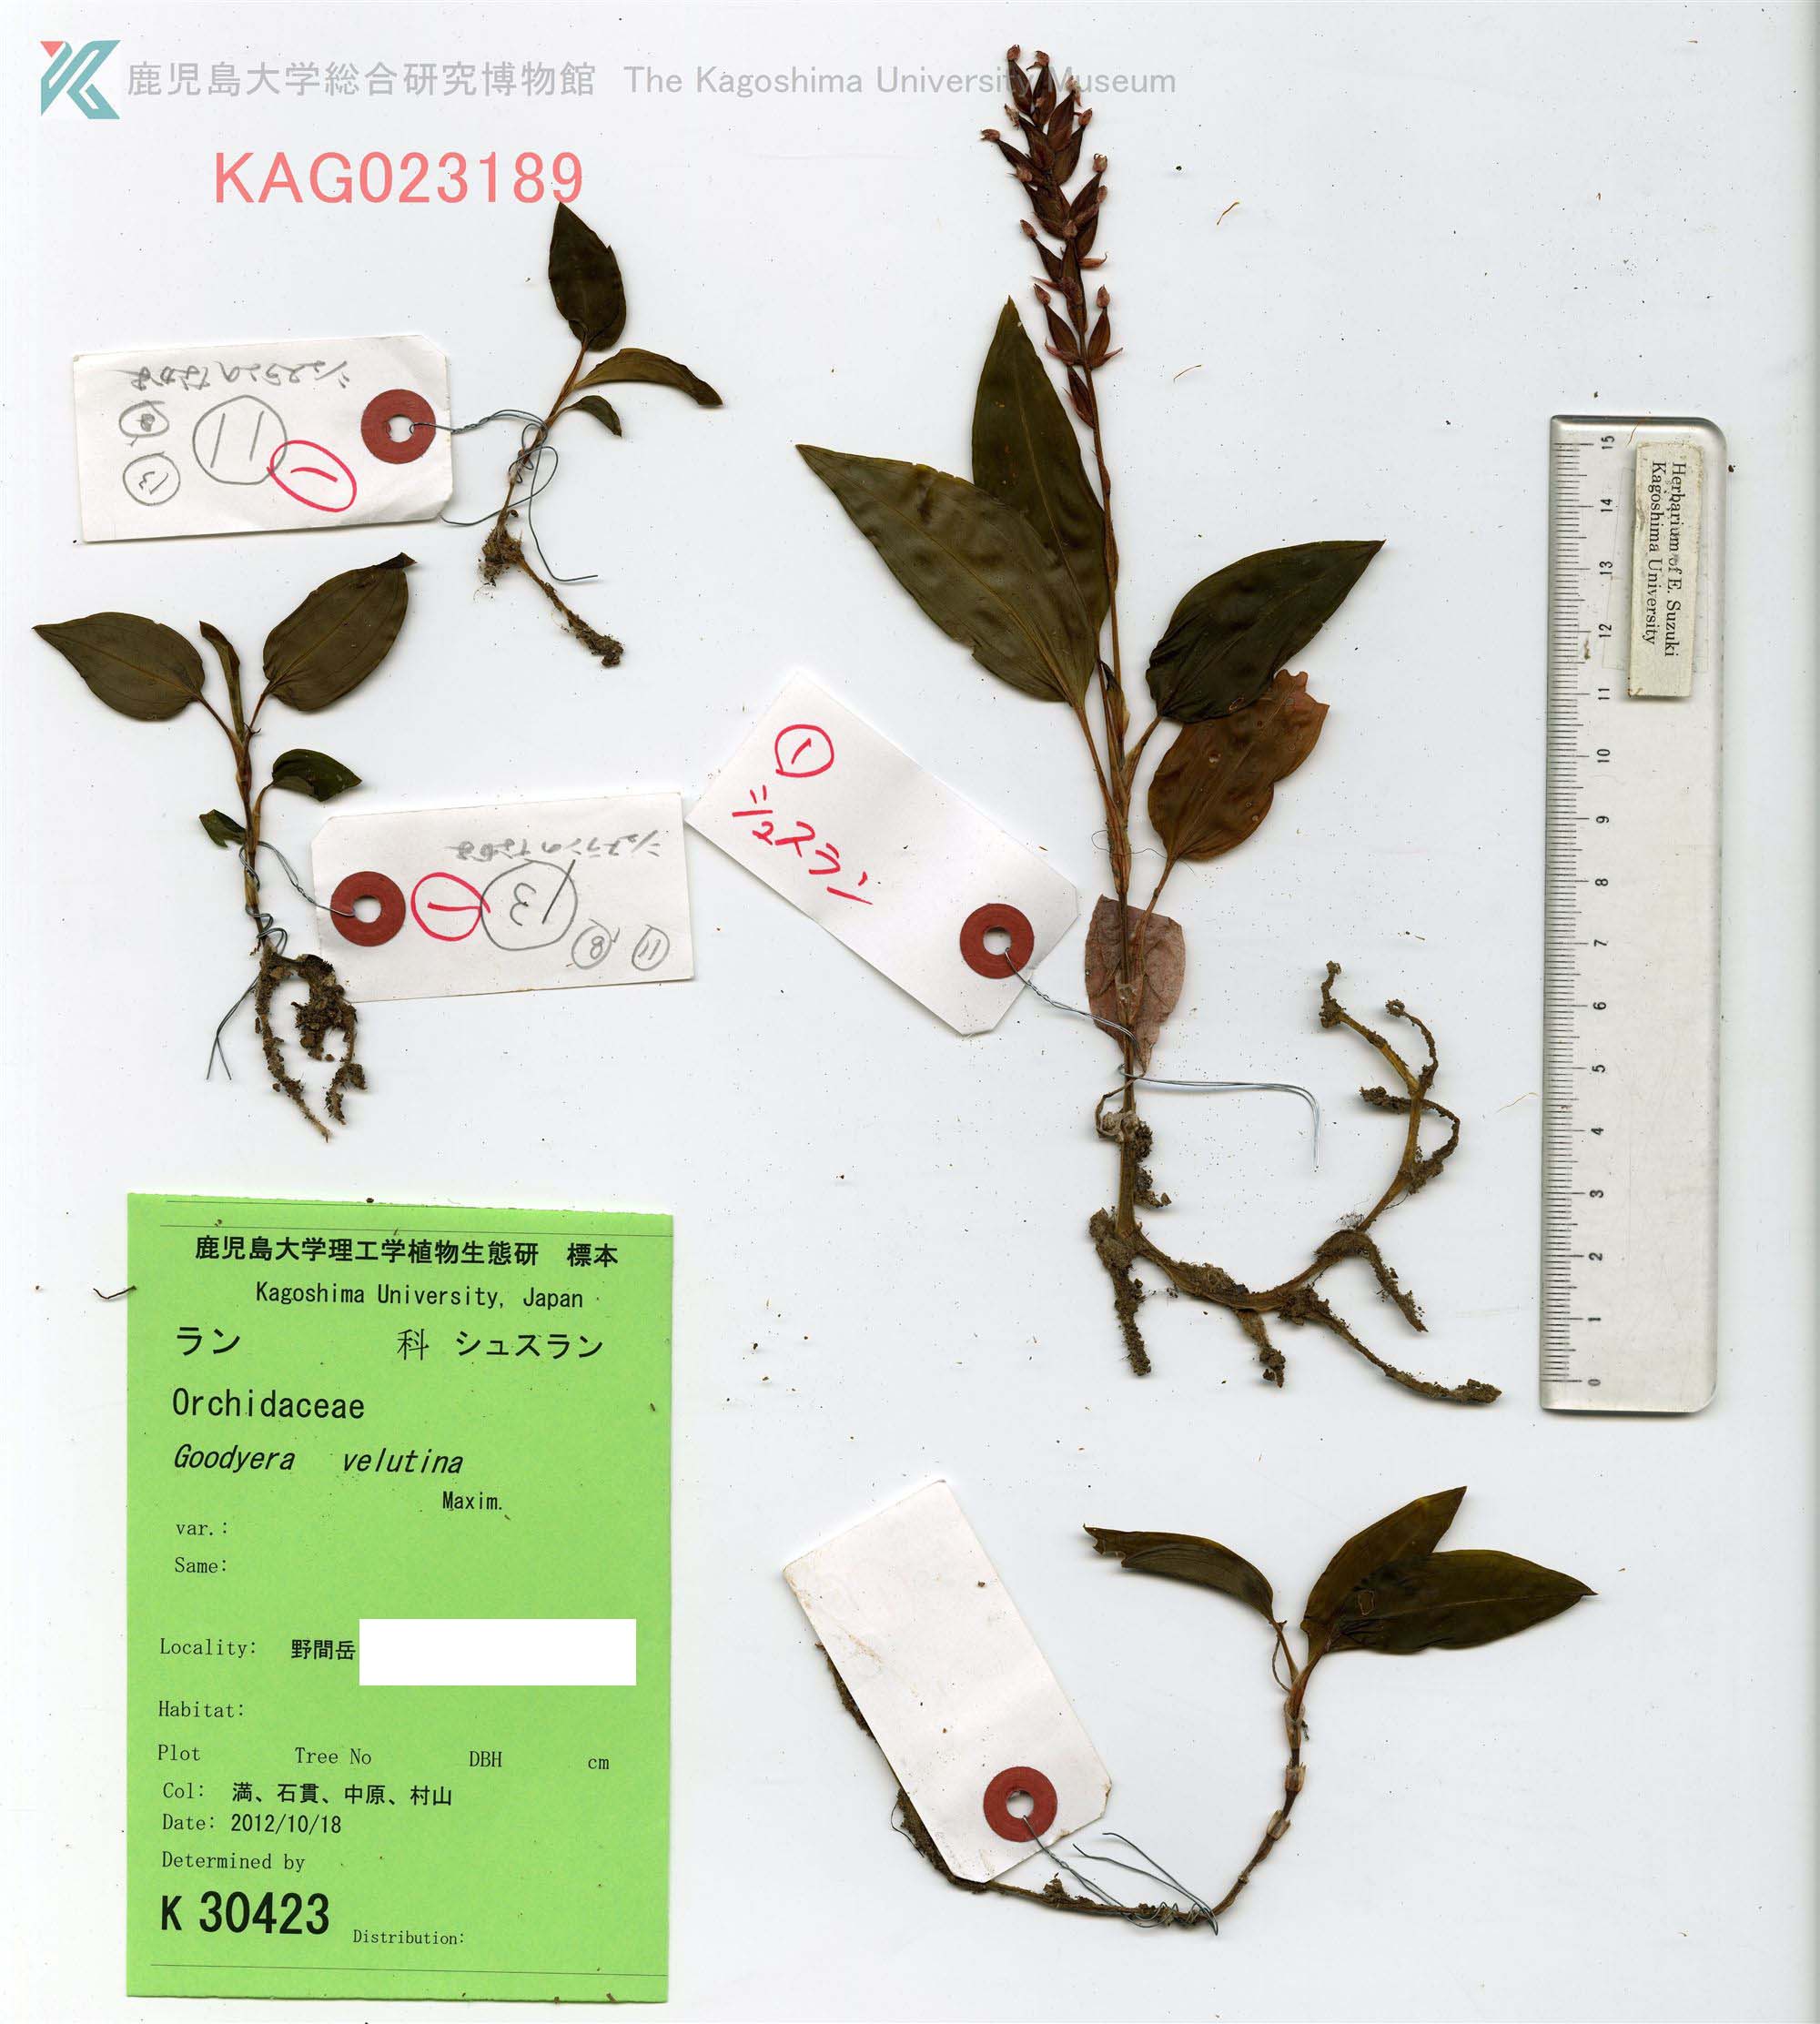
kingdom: Plantae
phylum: Tracheophyta
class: Liliopsida
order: Asparagales
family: Orchidaceae
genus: Hetaeria
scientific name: Hetaeria yakusimensis
